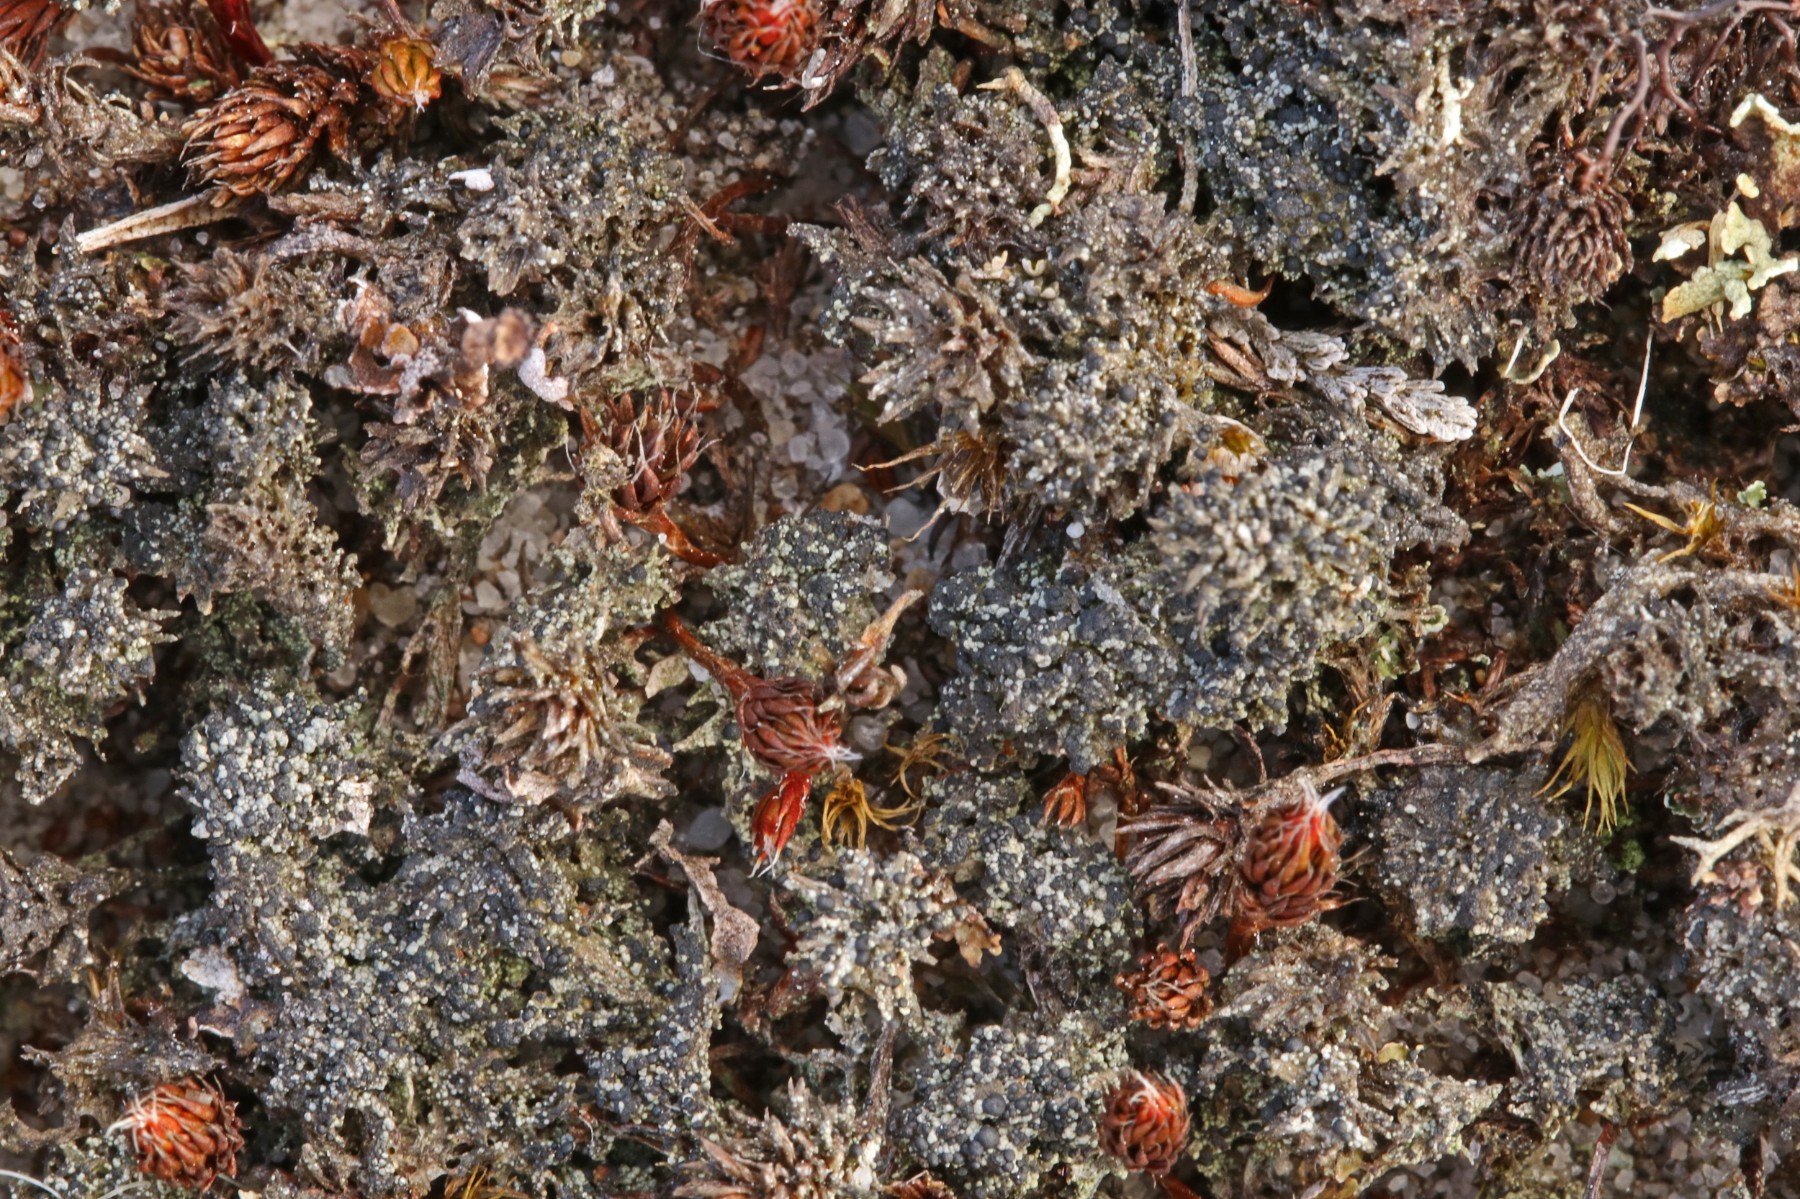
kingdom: Fungi
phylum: Ascomycota
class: Lecanoromycetes
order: Lecanorales
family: Byssolomataceae
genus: Micarea
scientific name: Micarea lignaria
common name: tørve-knaplav
